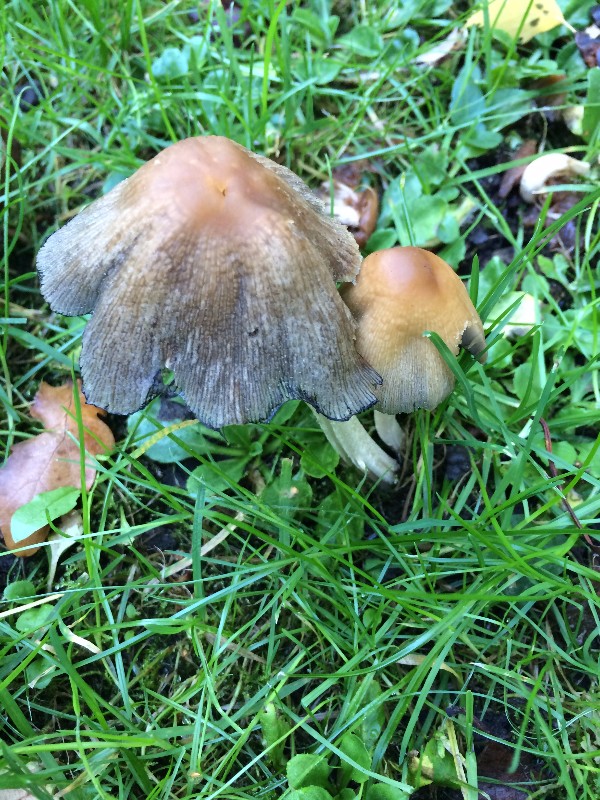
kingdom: Fungi
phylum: Basidiomycota
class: Agaricomycetes
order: Agaricales
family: Psathyrellaceae
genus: Coprinellus
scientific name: Coprinellus micaceus
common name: glimmer-blækhat
